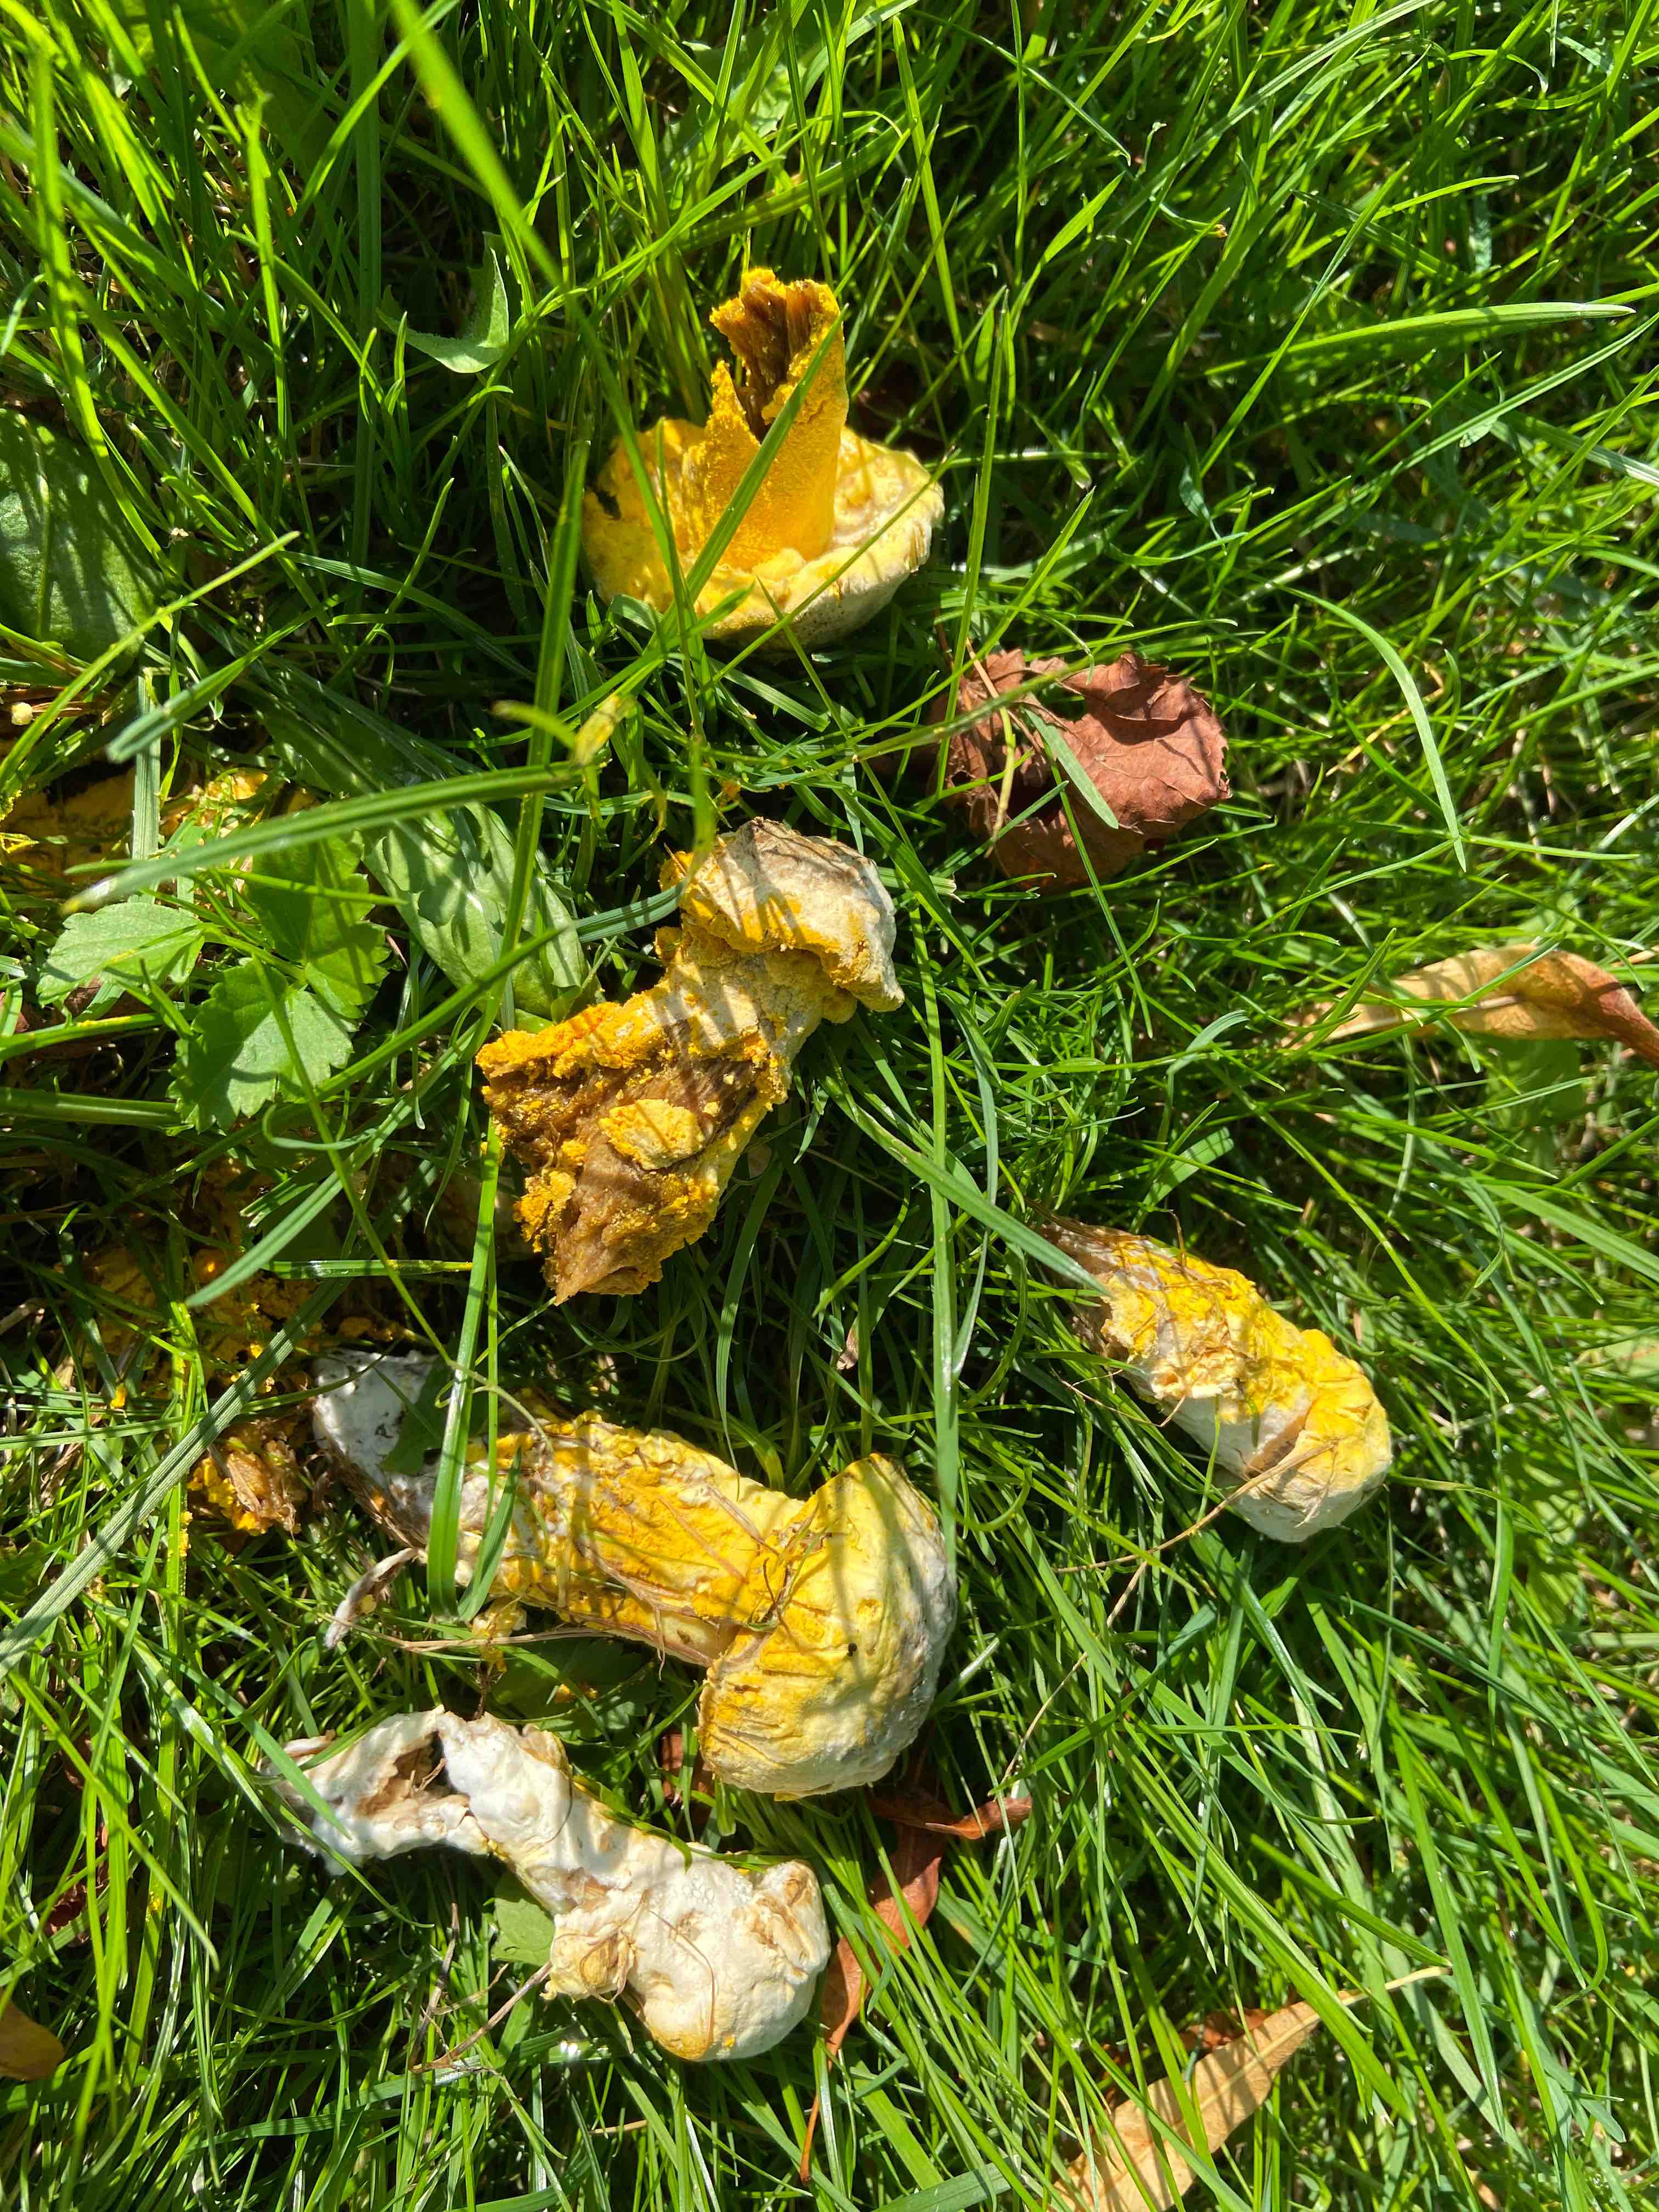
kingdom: Fungi
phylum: Ascomycota
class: Sordariomycetes
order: Hypocreales
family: Hypocreaceae
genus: Hypomyces
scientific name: Hypomyces
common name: snylteskorpe
